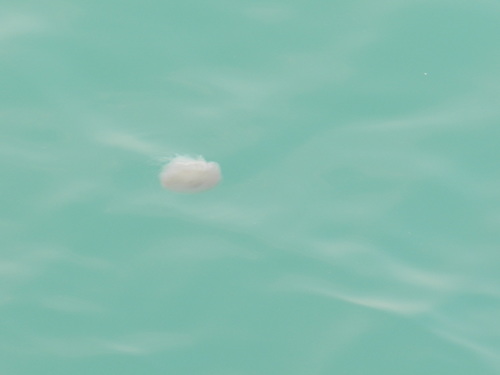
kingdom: Animalia
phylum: Cnidaria
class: Scyphozoa
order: Semaeostomeae
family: Cyaneidae
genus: Cyanea
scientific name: Cyanea nozakii
